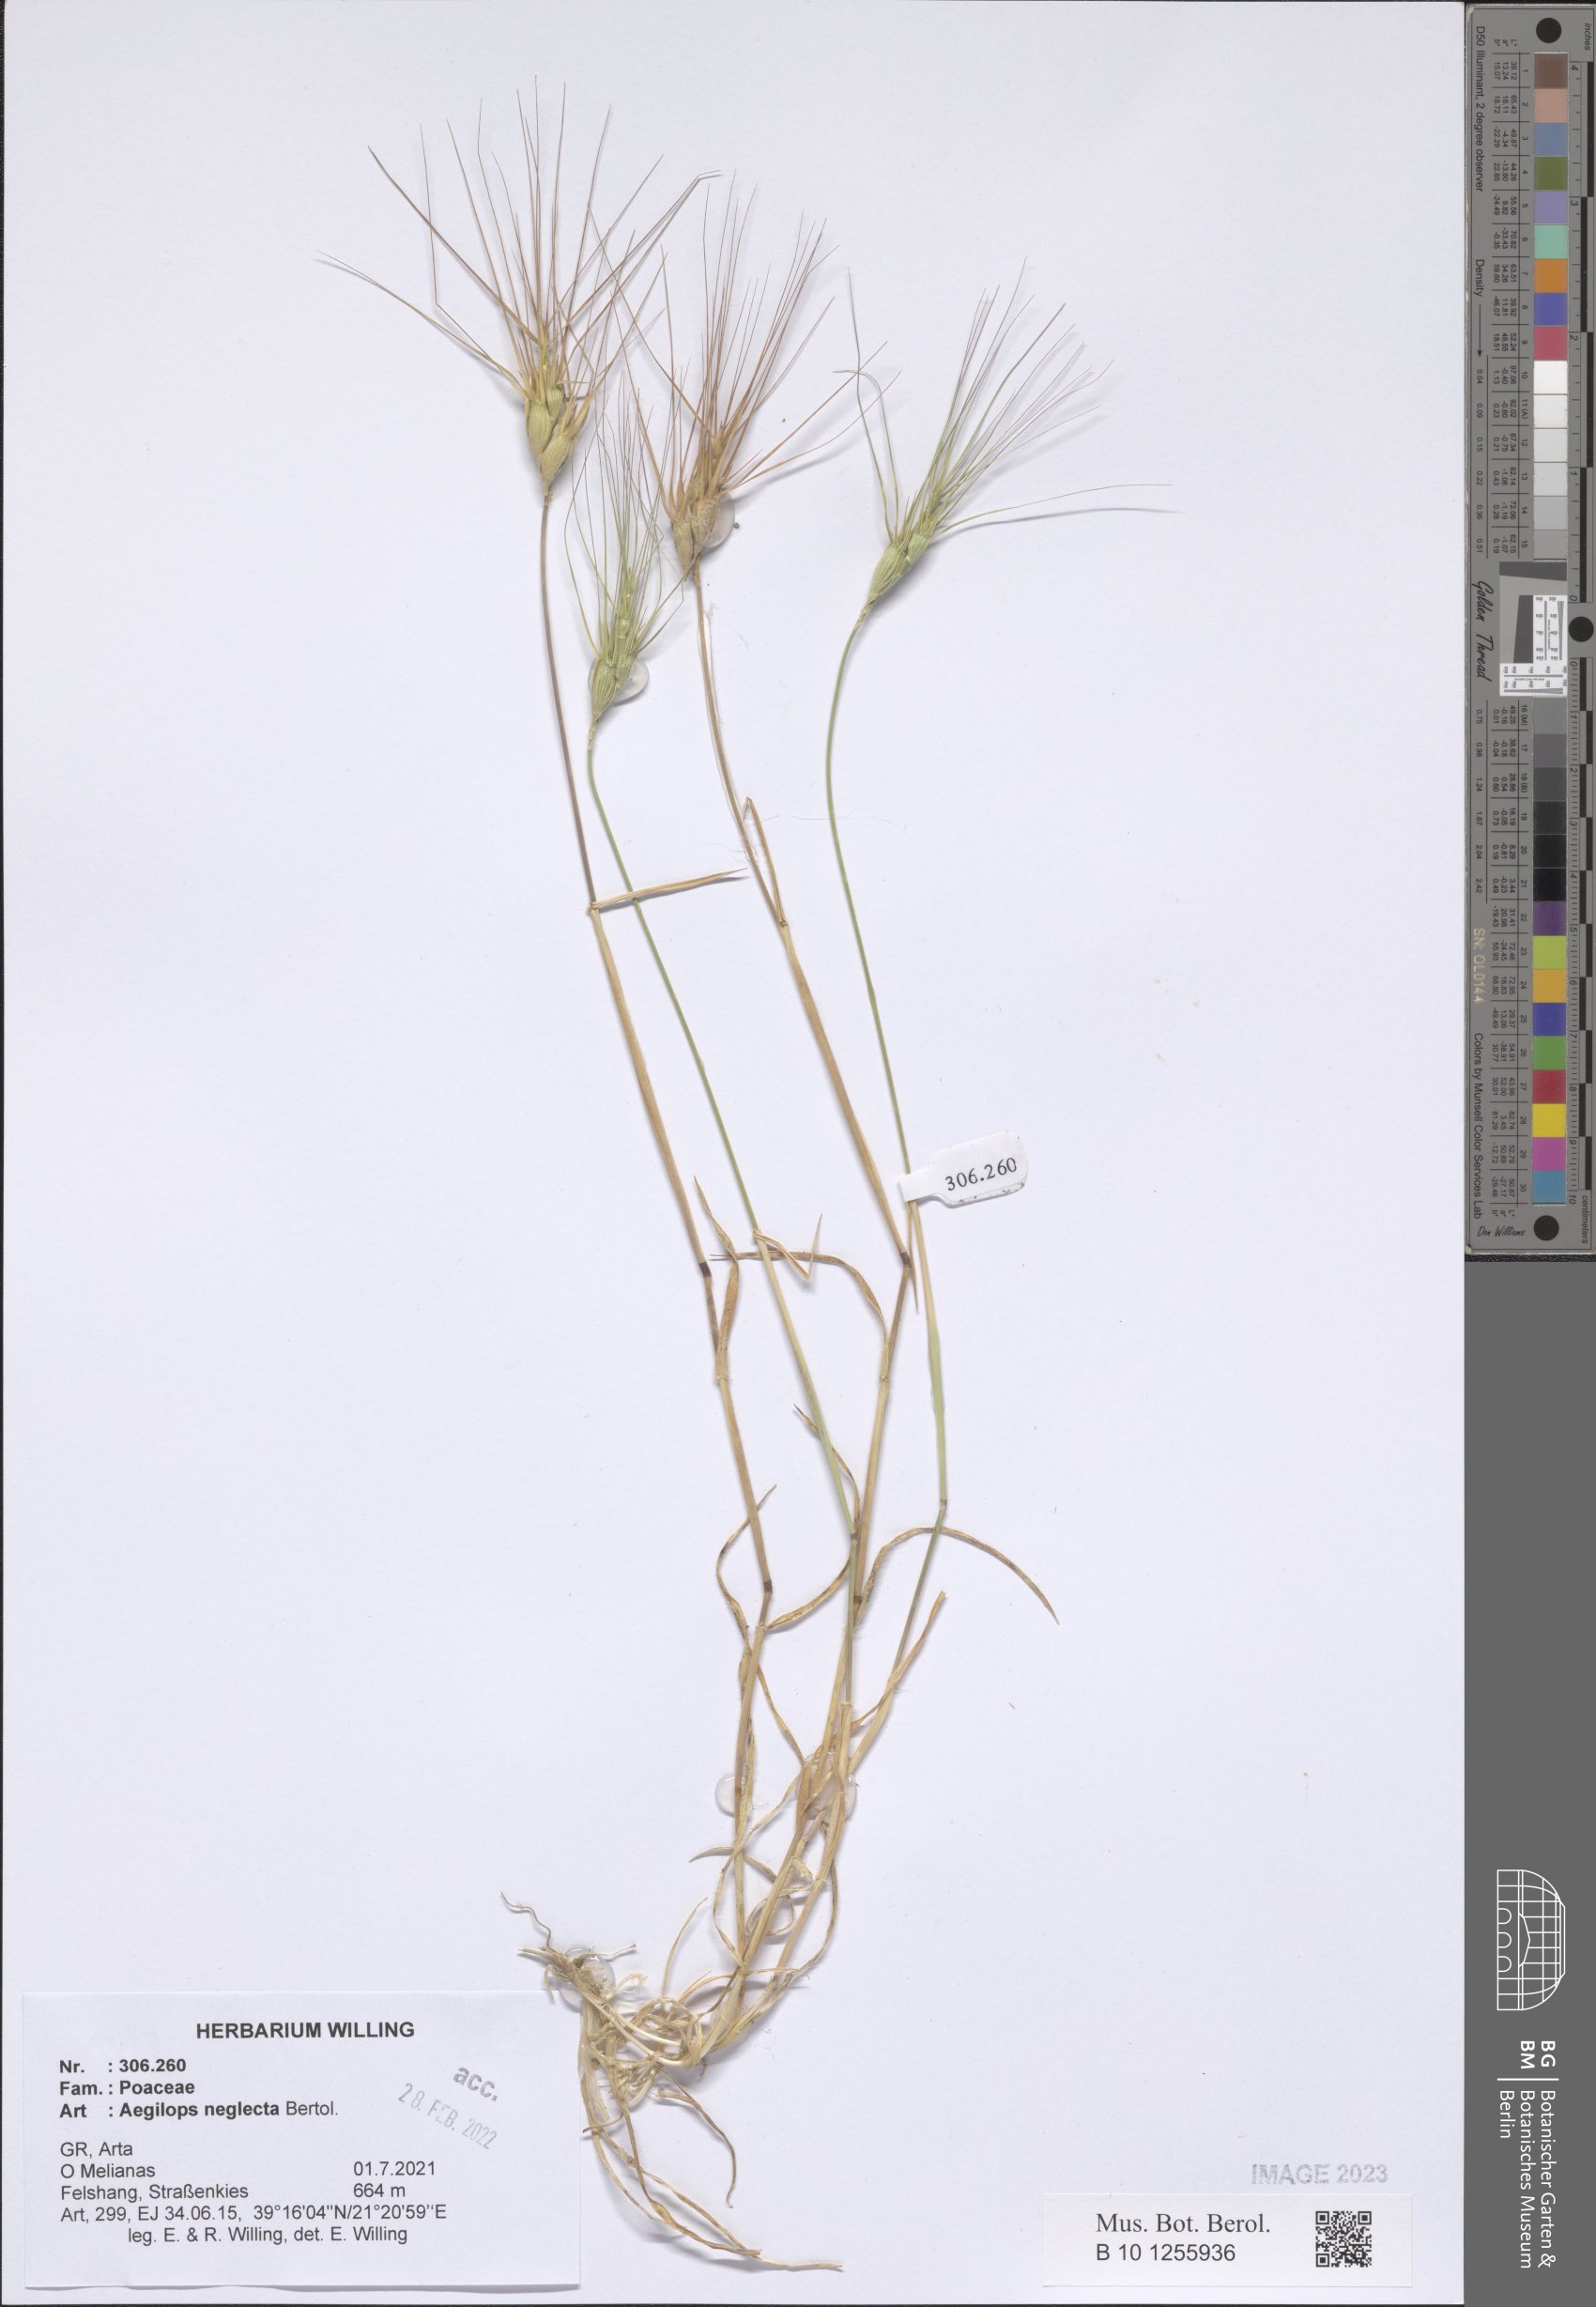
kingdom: Plantae
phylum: Tracheophyta
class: Liliopsida
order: Poales
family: Poaceae
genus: Aegilops
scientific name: Aegilops neglecta
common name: Three-awn goat grass
